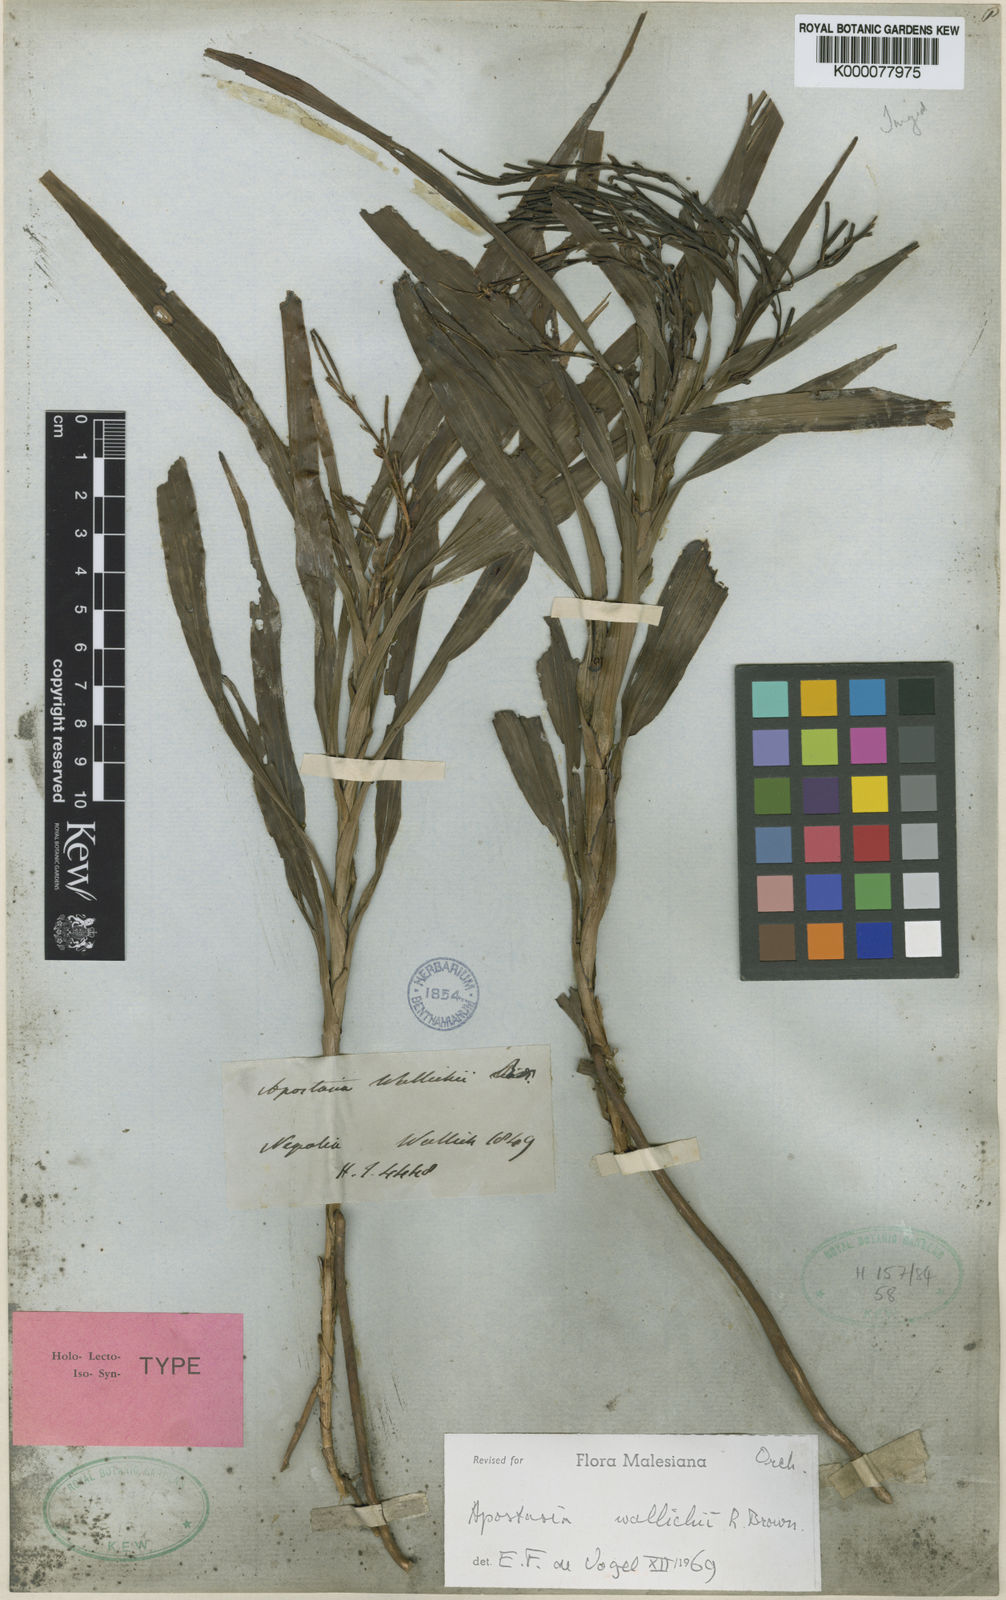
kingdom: Plantae
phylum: Tracheophyta
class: Liliopsida
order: Asparagales
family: Orchidaceae
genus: Apostasia
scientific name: Apostasia wallichii
